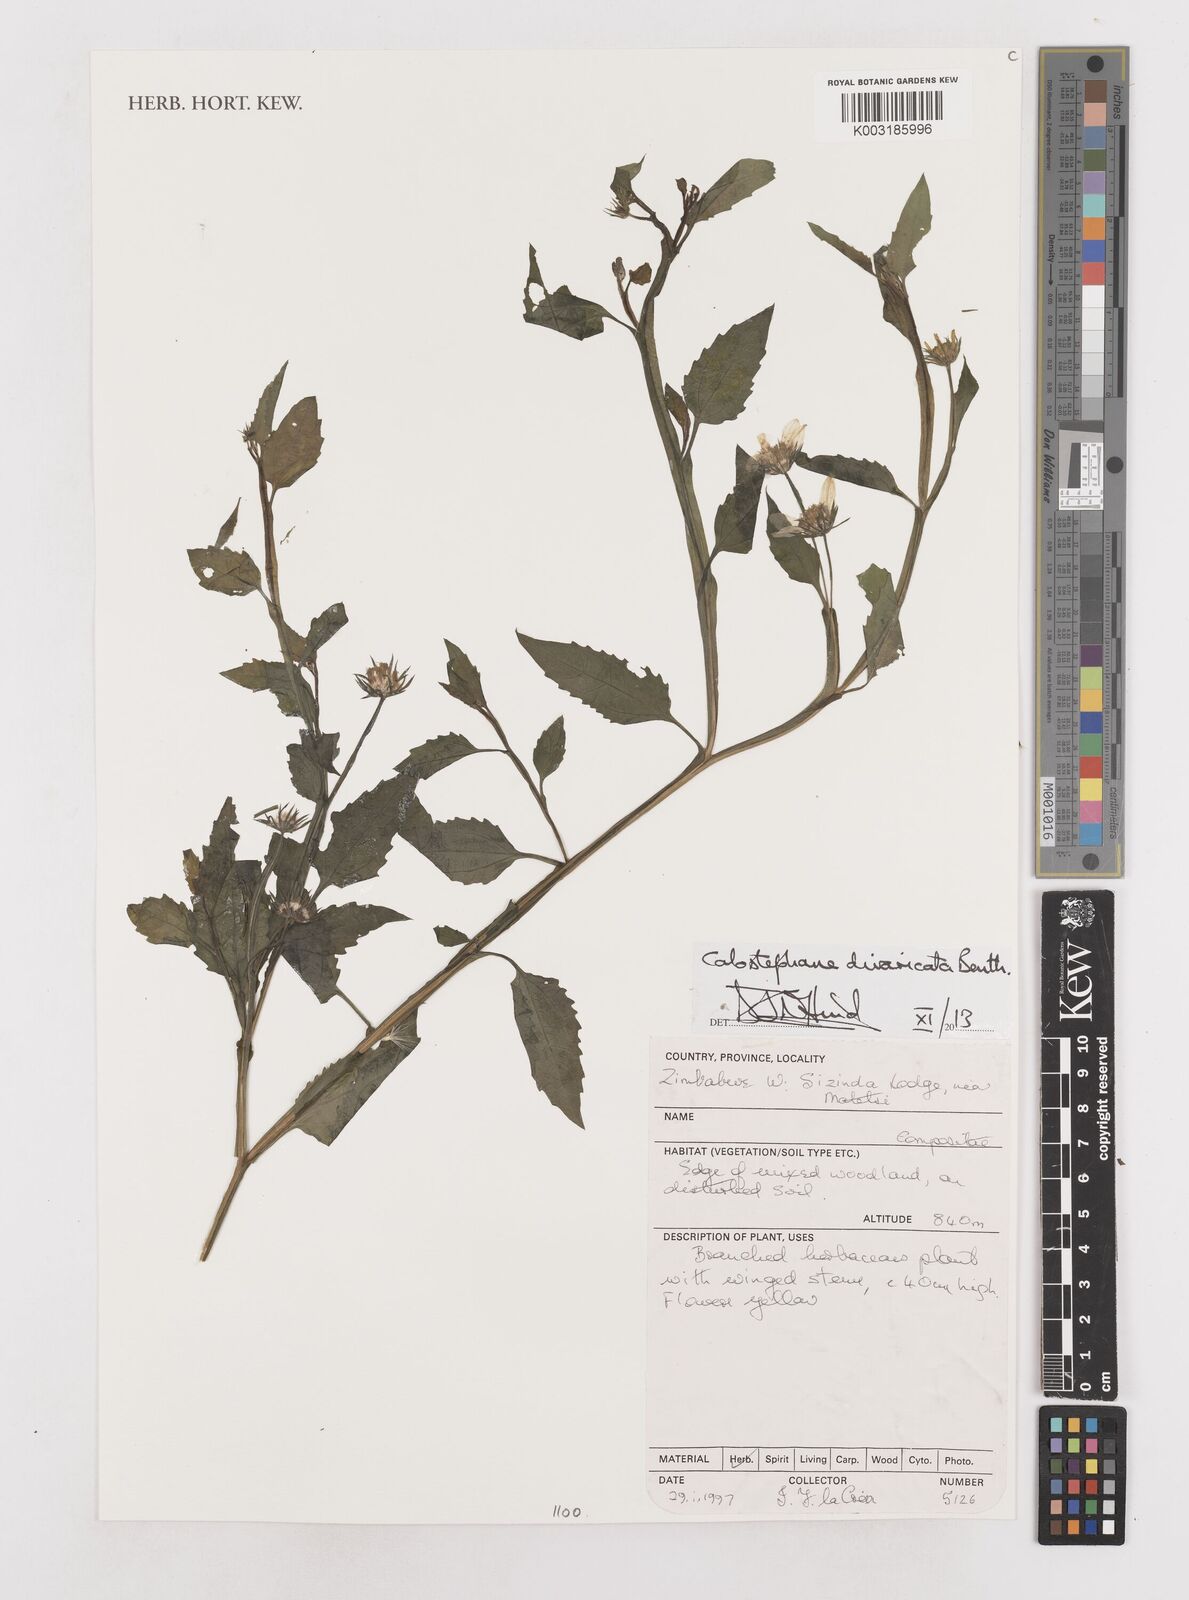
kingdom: Plantae
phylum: Tracheophyta
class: Magnoliopsida
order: Asterales
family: Asteraceae
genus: Calostephane
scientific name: Calostephane divaricata
